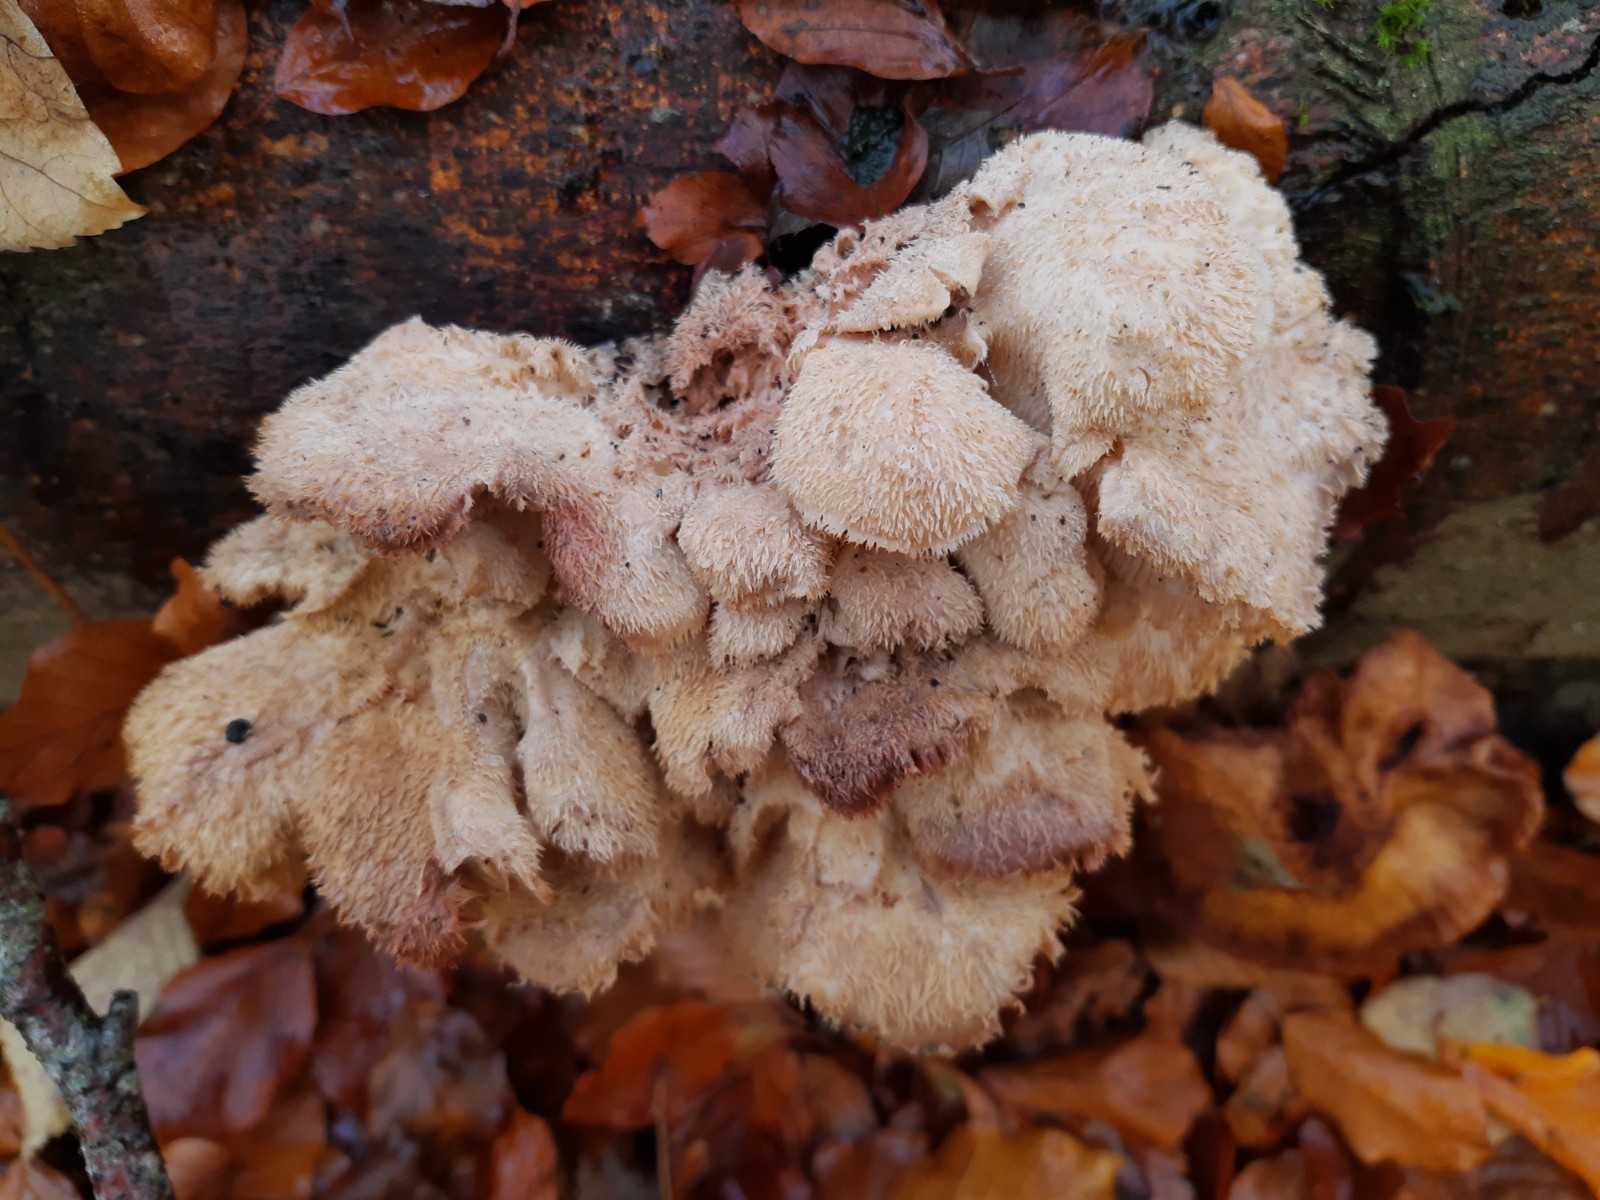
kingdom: Fungi
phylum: Basidiomycota
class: Agaricomycetes
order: Russulales
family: Hericiaceae
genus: Hericium
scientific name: Hericium cirrhatum
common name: børstepigsvamp
